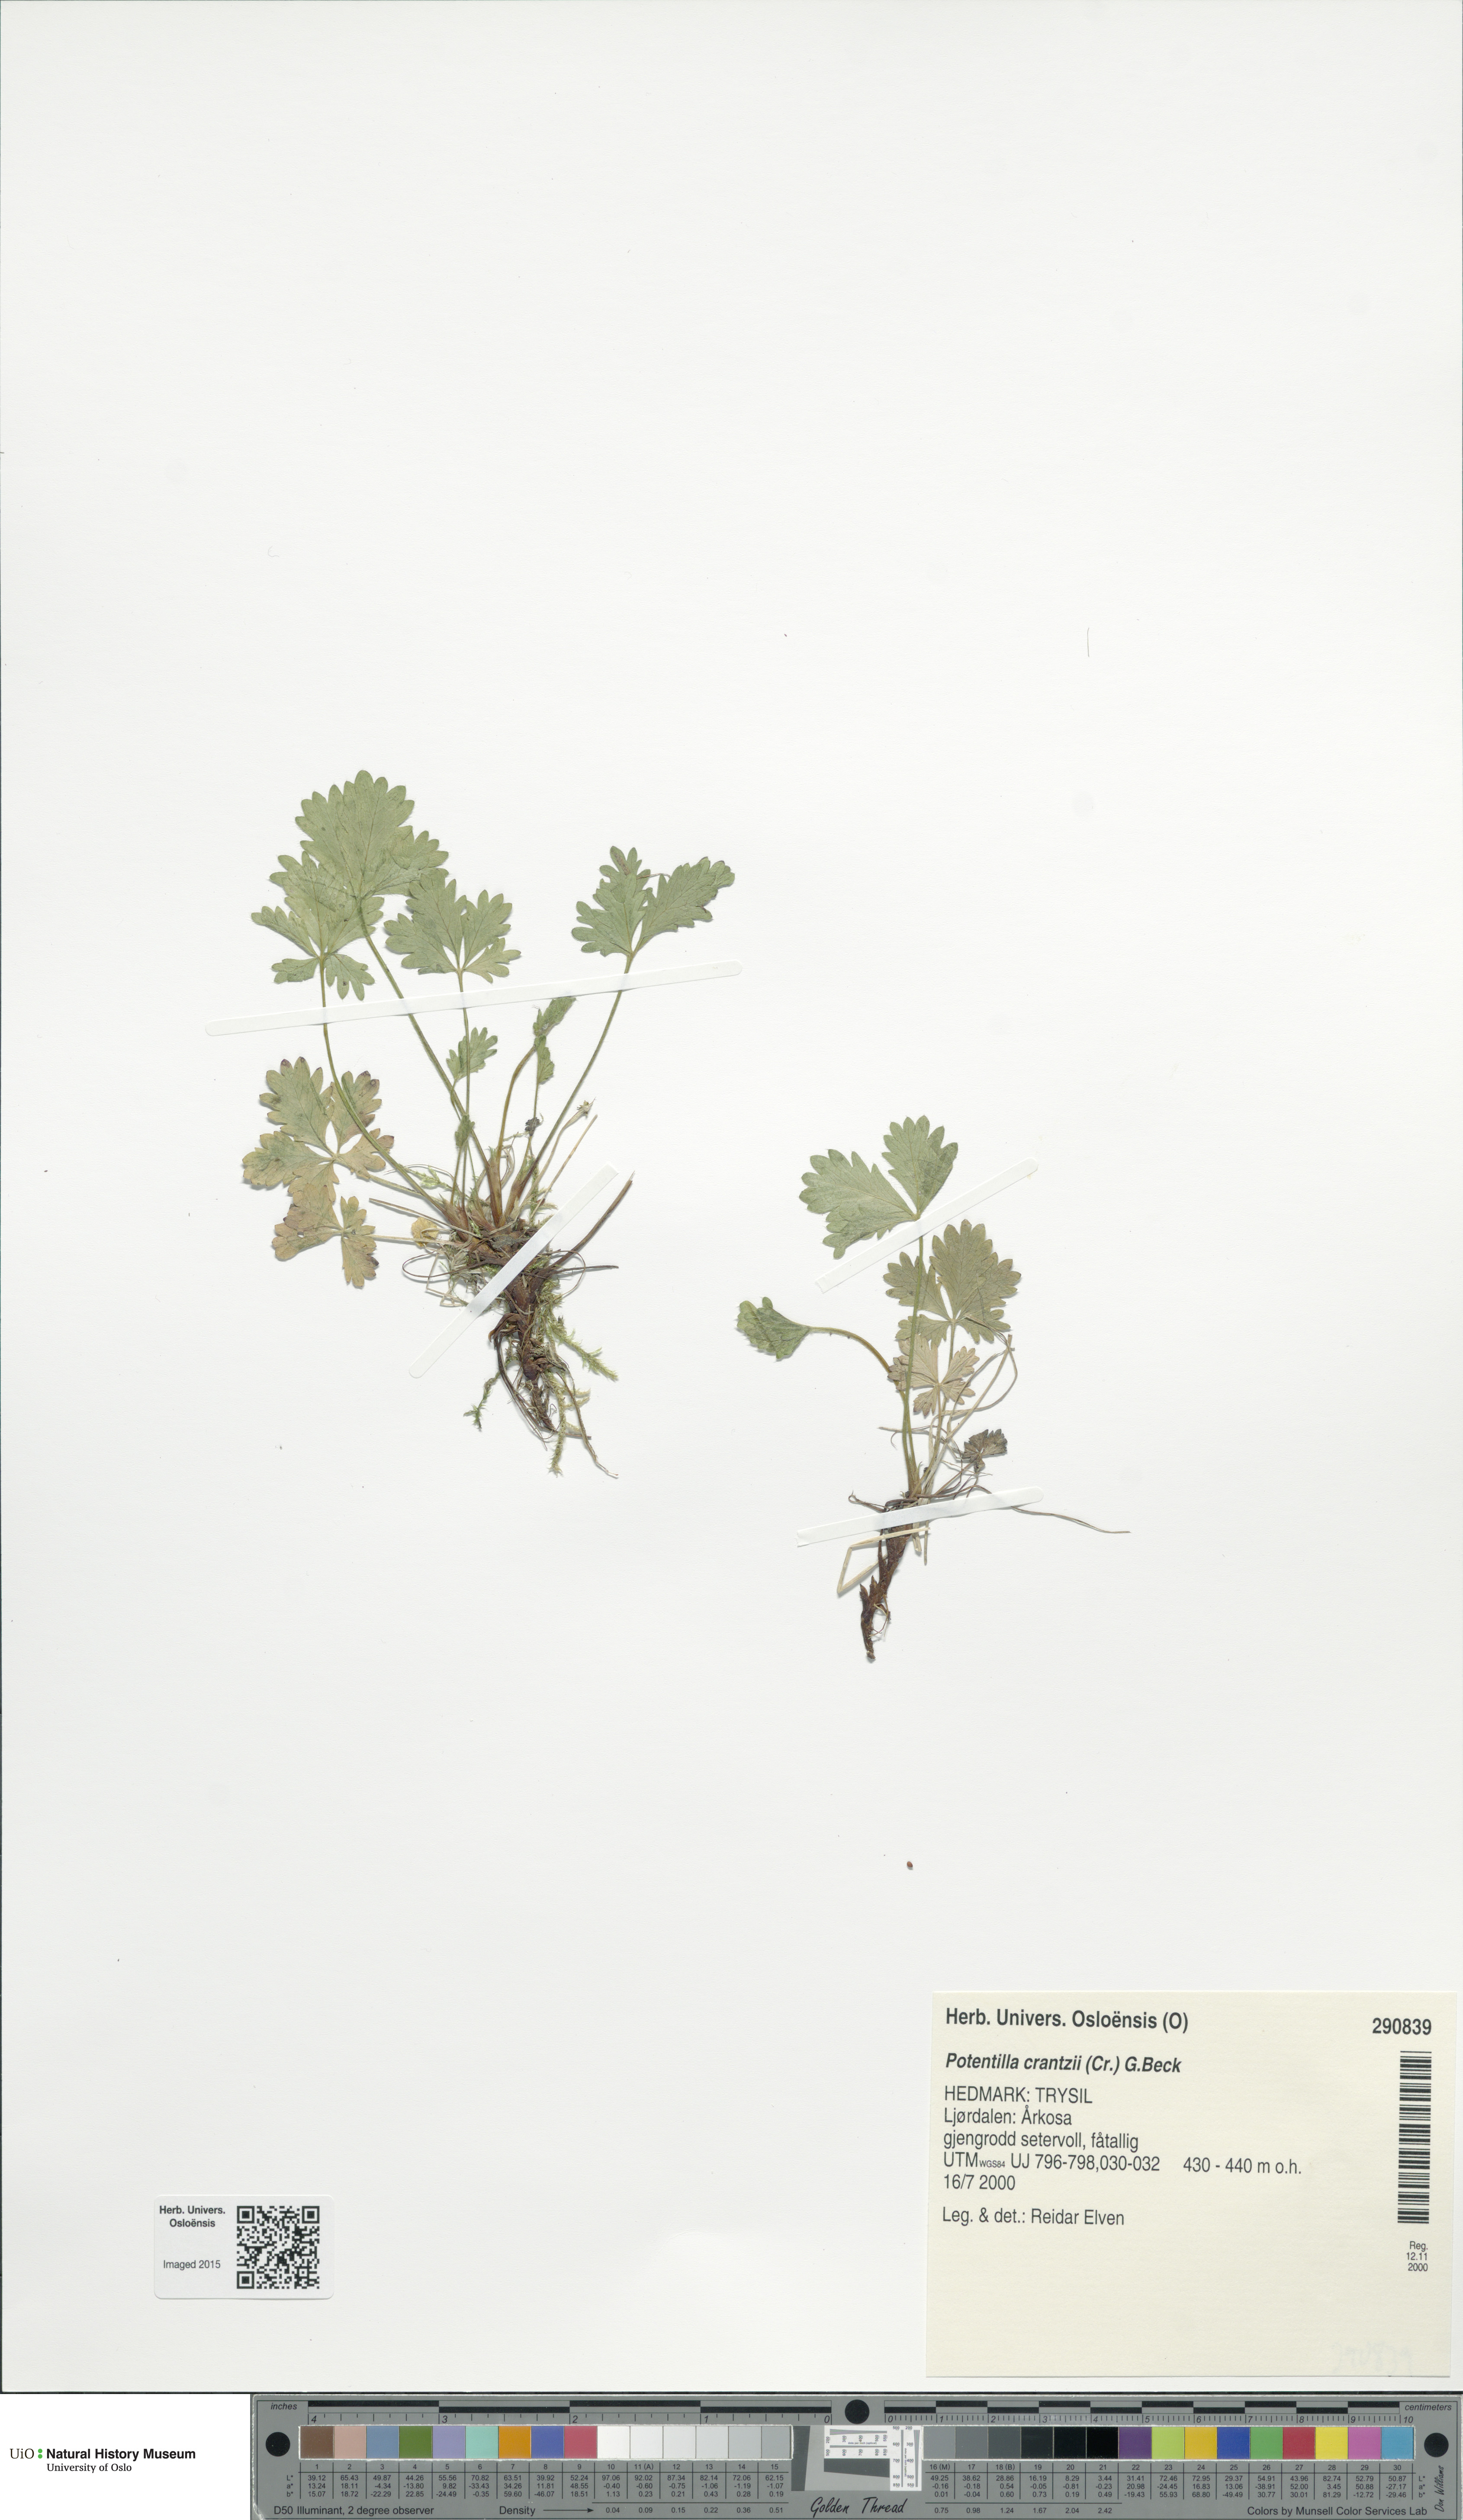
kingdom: Plantae
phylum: Tracheophyta
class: Magnoliopsida
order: Rosales
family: Rosaceae
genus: Potentilla
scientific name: Potentilla crantzii
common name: Alpine cinquefoil
